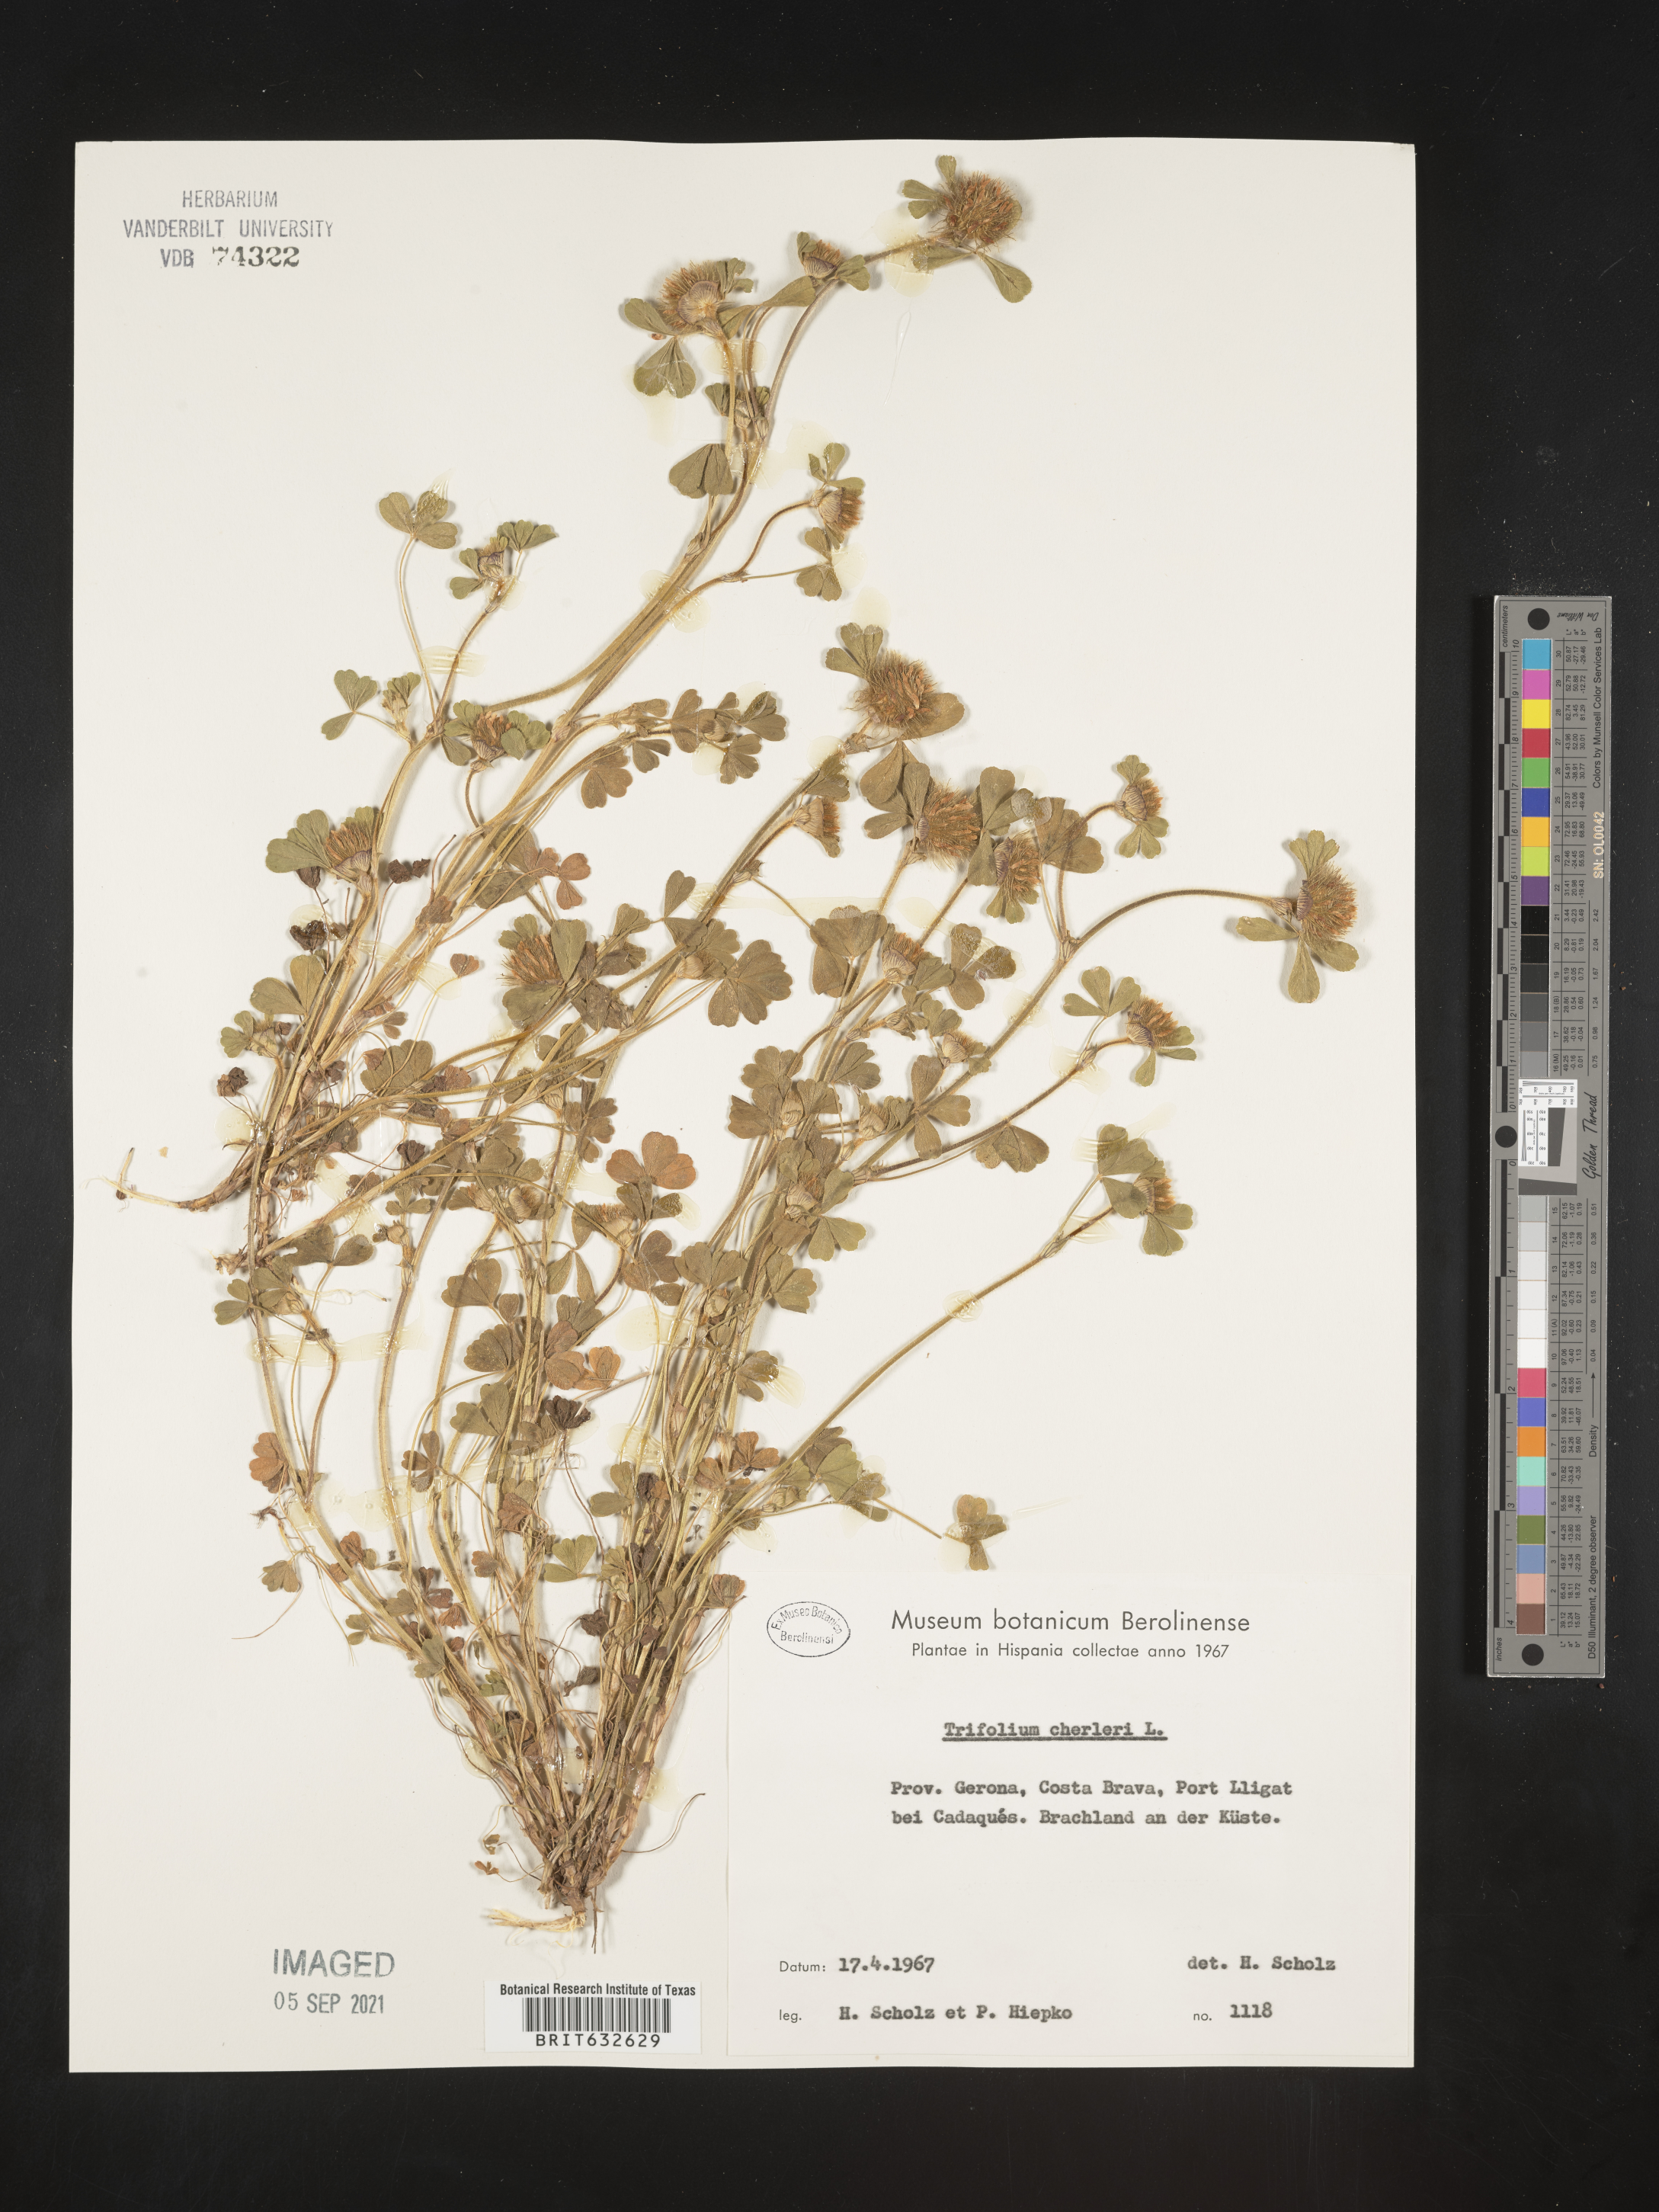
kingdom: Plantae
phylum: Tracheophyta
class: Magnoliopsida
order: Fabales
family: Fabaceae
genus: Trifolium
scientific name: Trifolium
